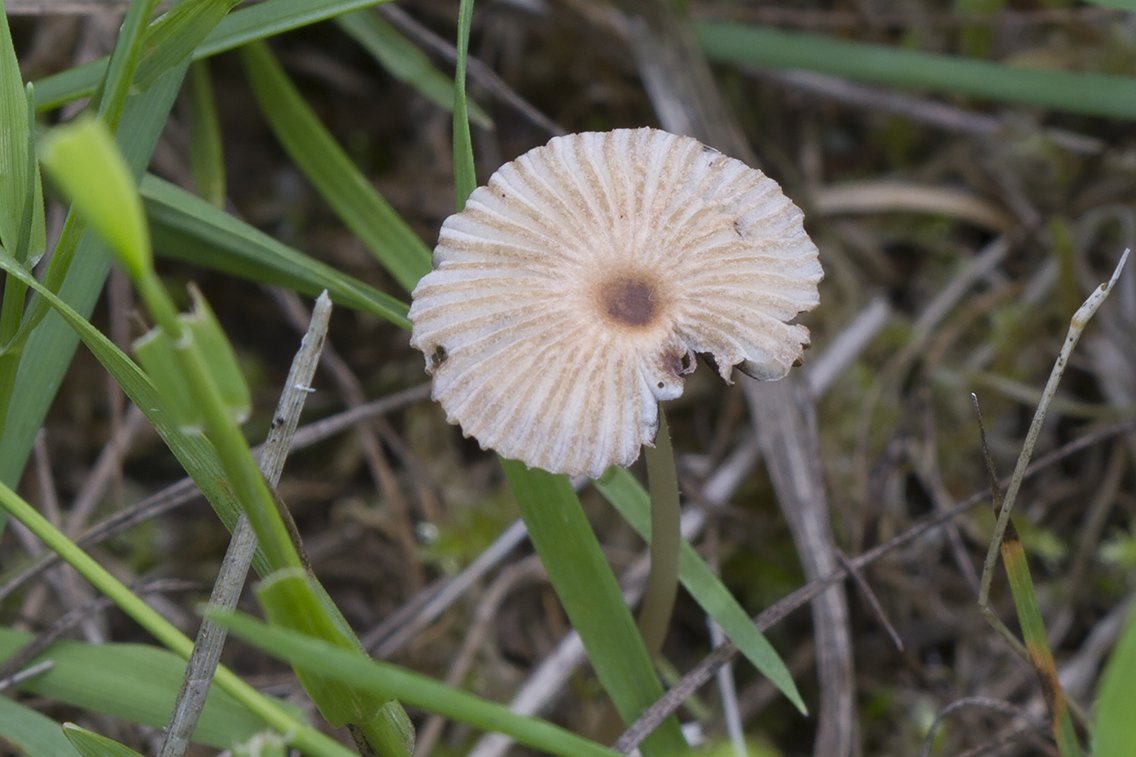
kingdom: Fungi
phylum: Basidiomycota
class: Agaricomycetes
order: Agaricales
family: Psathyrellaceae
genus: Parasola
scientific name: Parasola schroeteri
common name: bredsporet hjulhat
